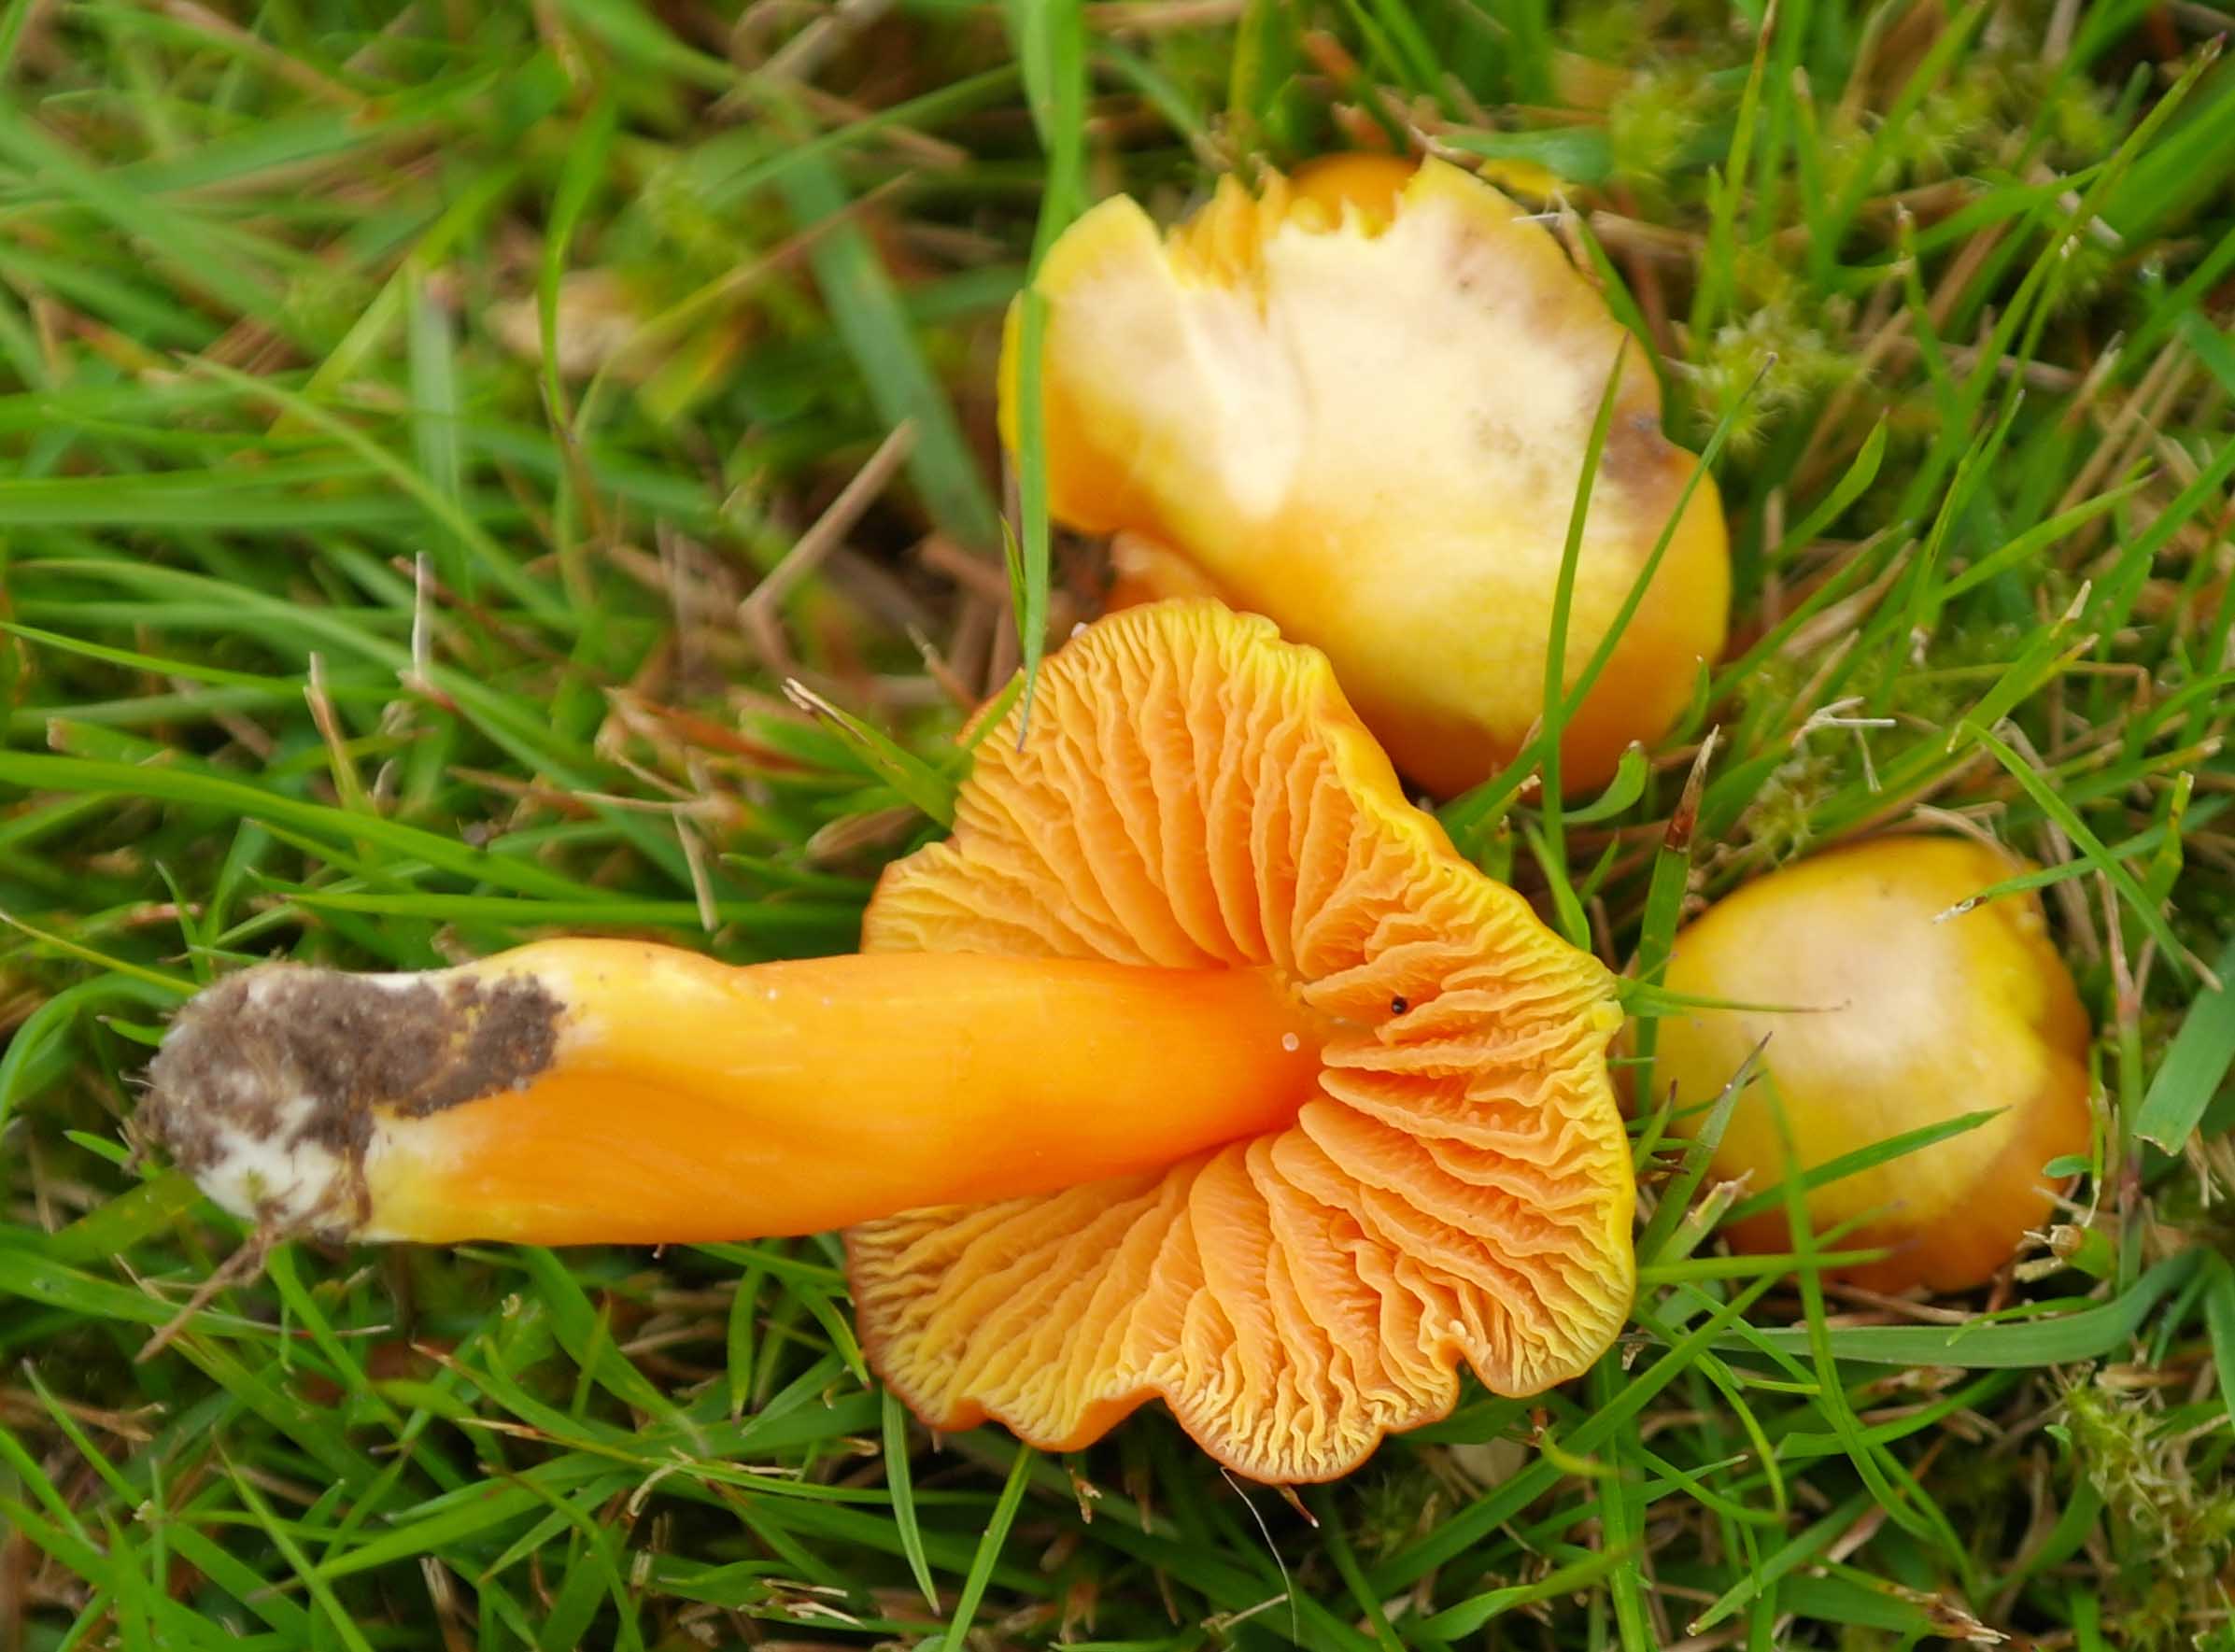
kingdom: Fungi
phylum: Basidiomycota
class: Agaricomycetes
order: Agaricales
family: Hygrophoraceae
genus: Hygrocybe
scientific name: Hygrocybe quieta
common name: tæge-vokshat
